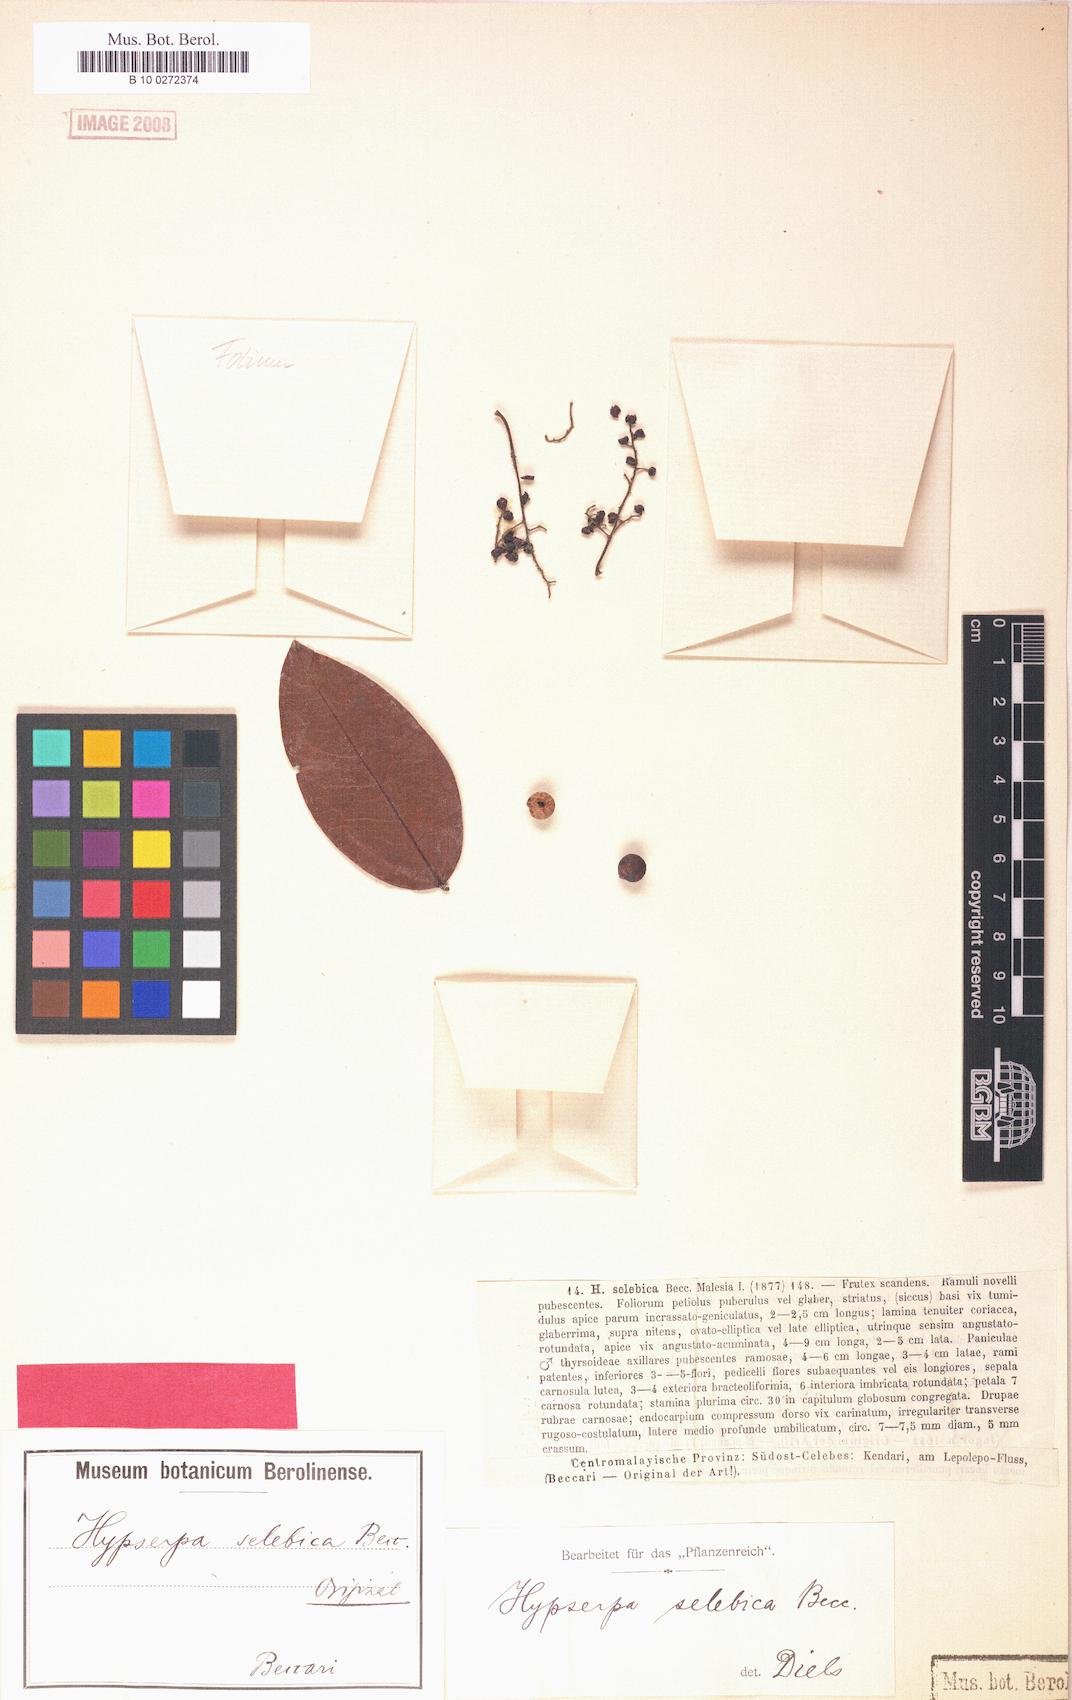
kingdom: Plantae
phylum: Tracheophyta
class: Magnoliopsida
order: Ranunculales
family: Menispermaceae
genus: Hypserpa
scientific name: Hypserpa polyandra
